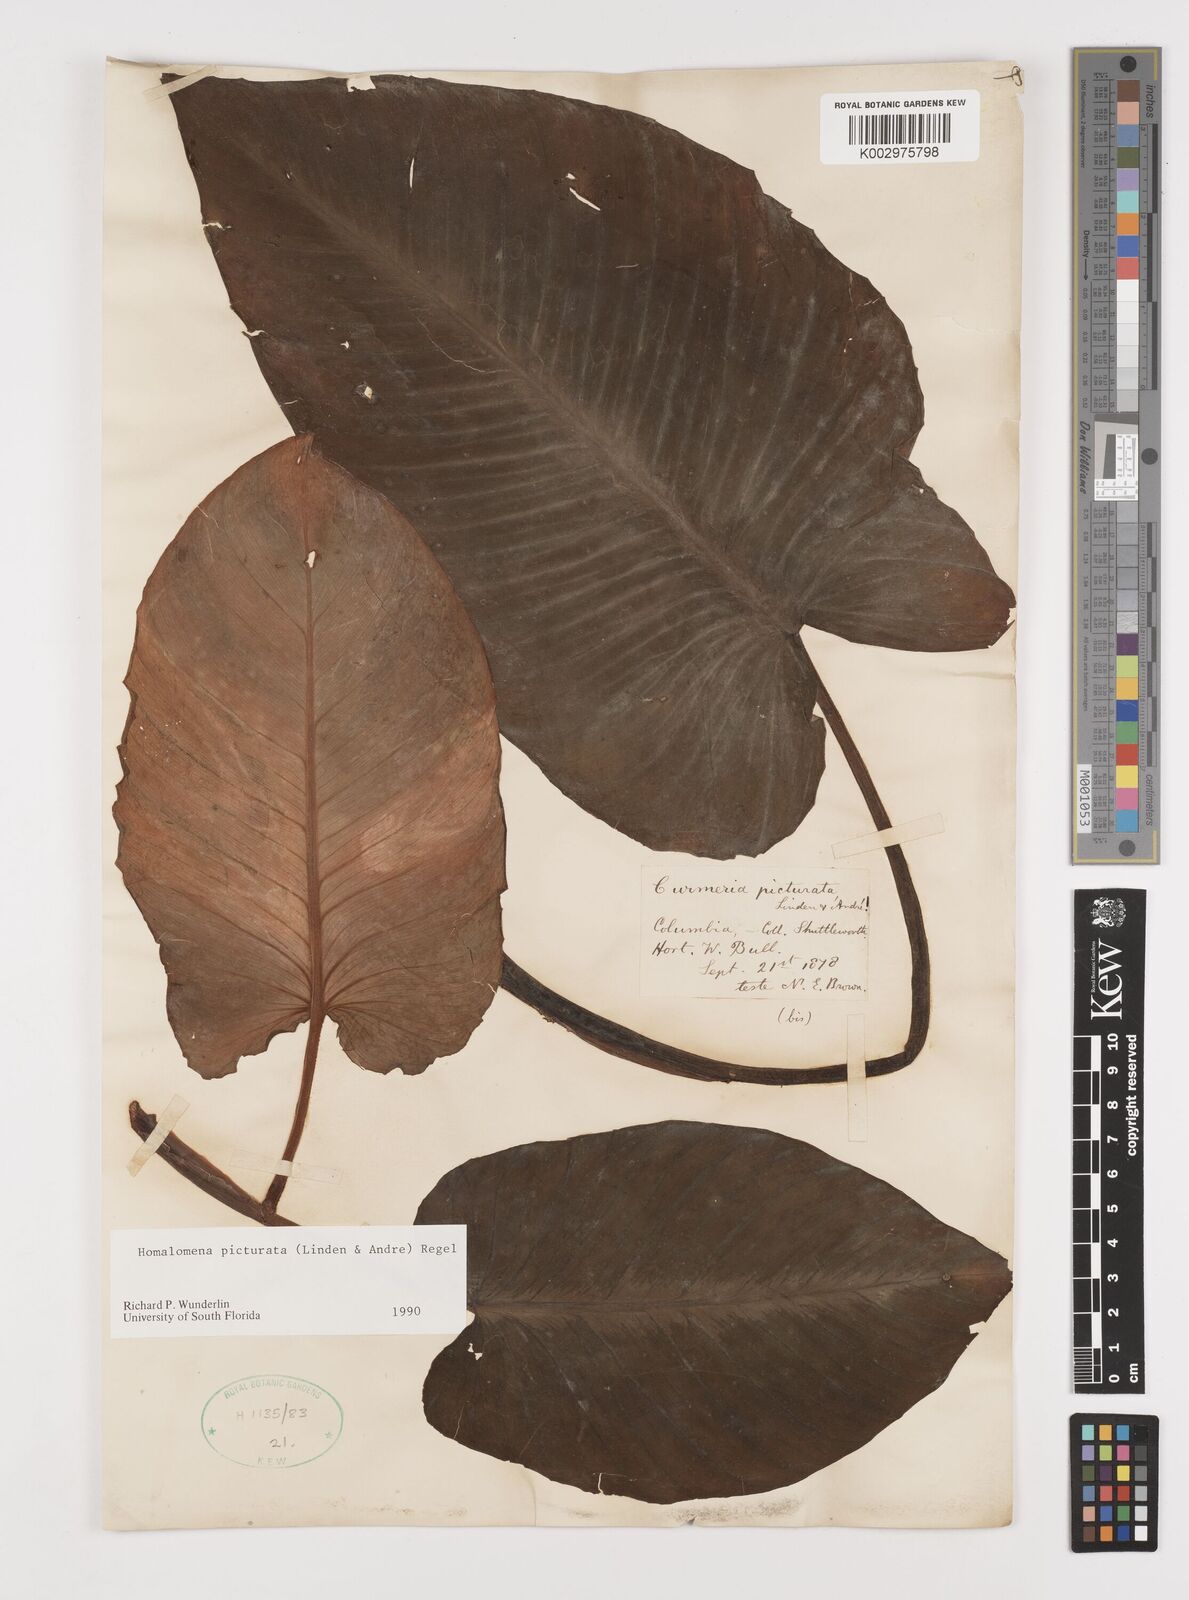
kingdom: Plantae
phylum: Tracheophyta
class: Liliopsida
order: Alismatales
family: Araceae
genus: Adelonema
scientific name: Adelonema picturatum
